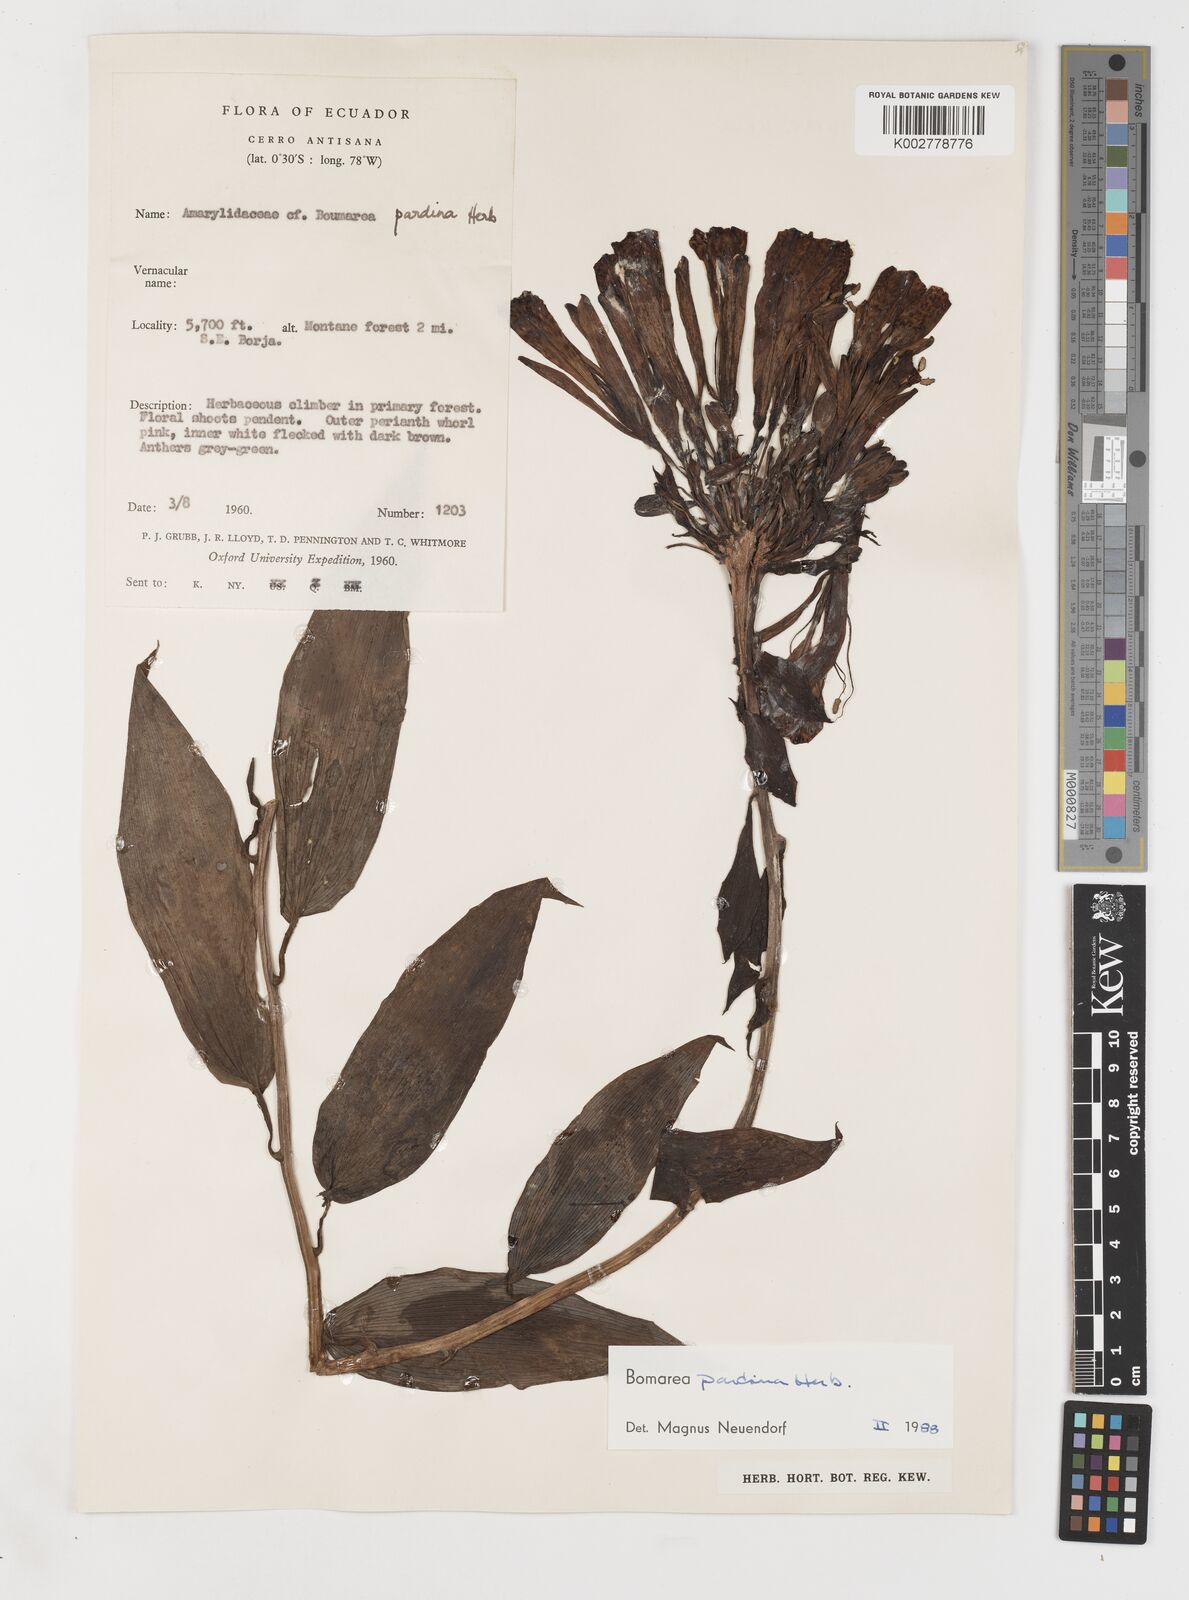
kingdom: Plantae
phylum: Tracheophyta
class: Liliopsida
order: Liliales
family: Alstroemeriaceae
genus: Bomarea
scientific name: Bomarea pardina
